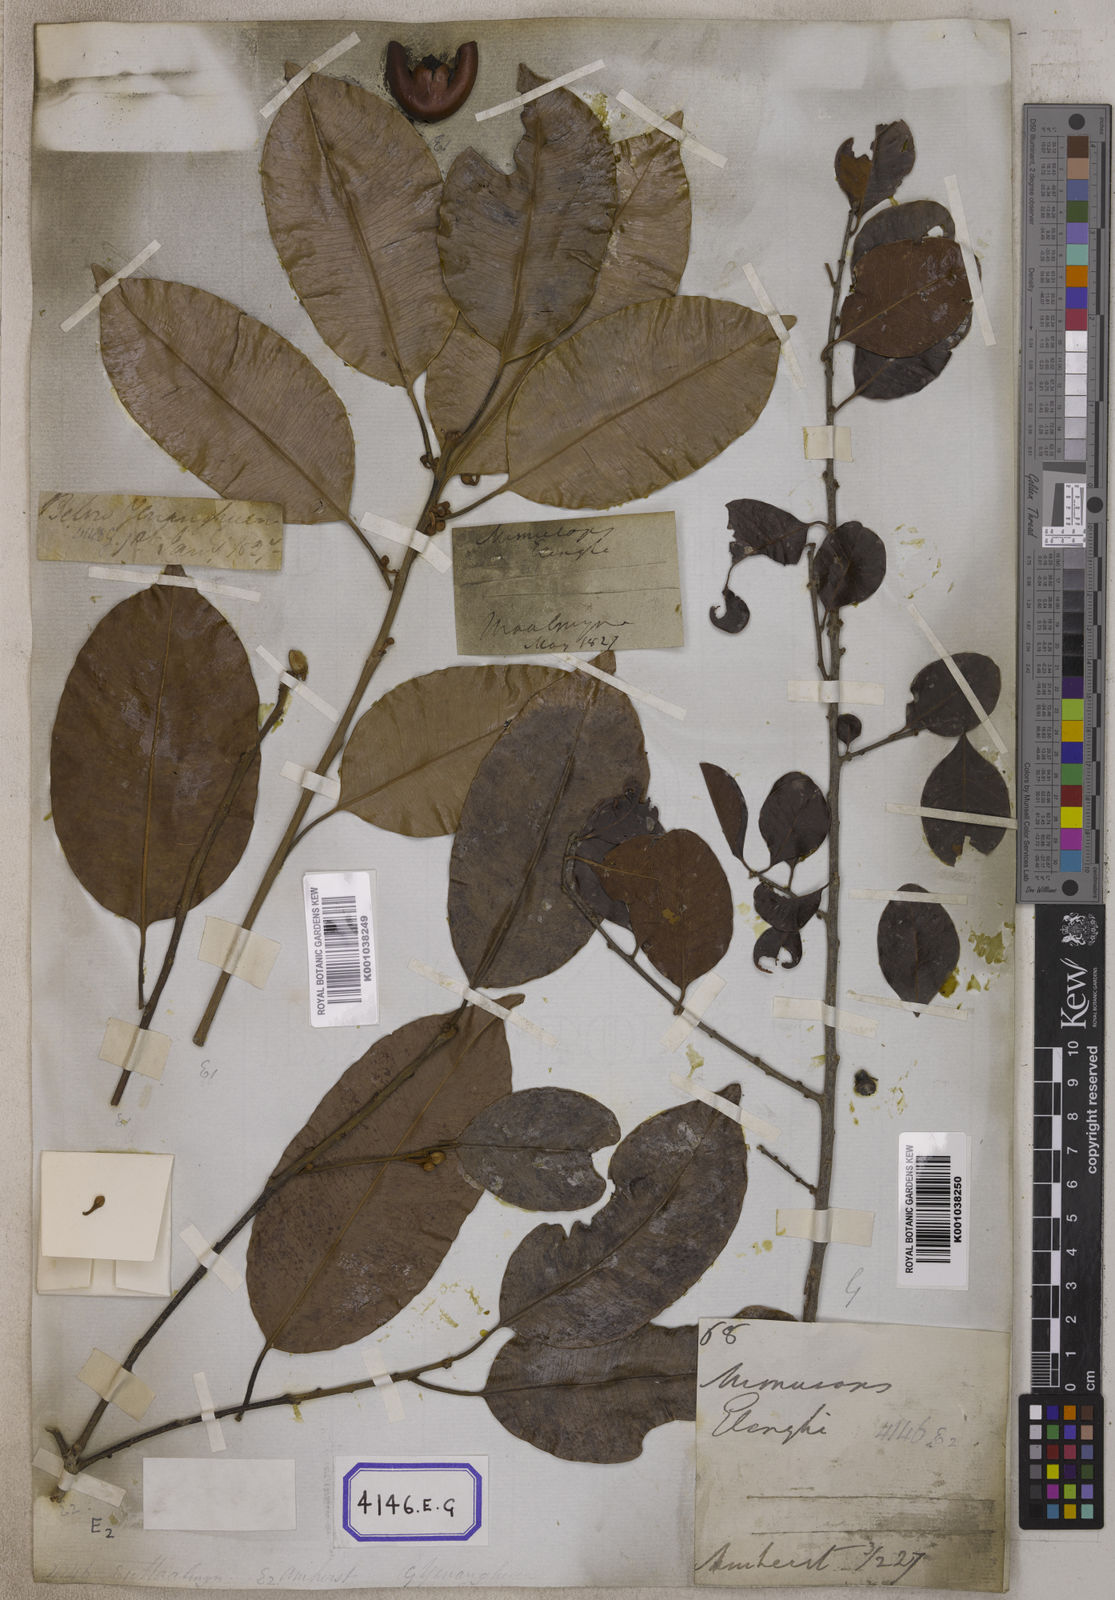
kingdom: Plantae
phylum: Tracheophyta
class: Magnoliopsida
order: Ericales
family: Sapotaceae
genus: Mimusops
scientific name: Mimusops
